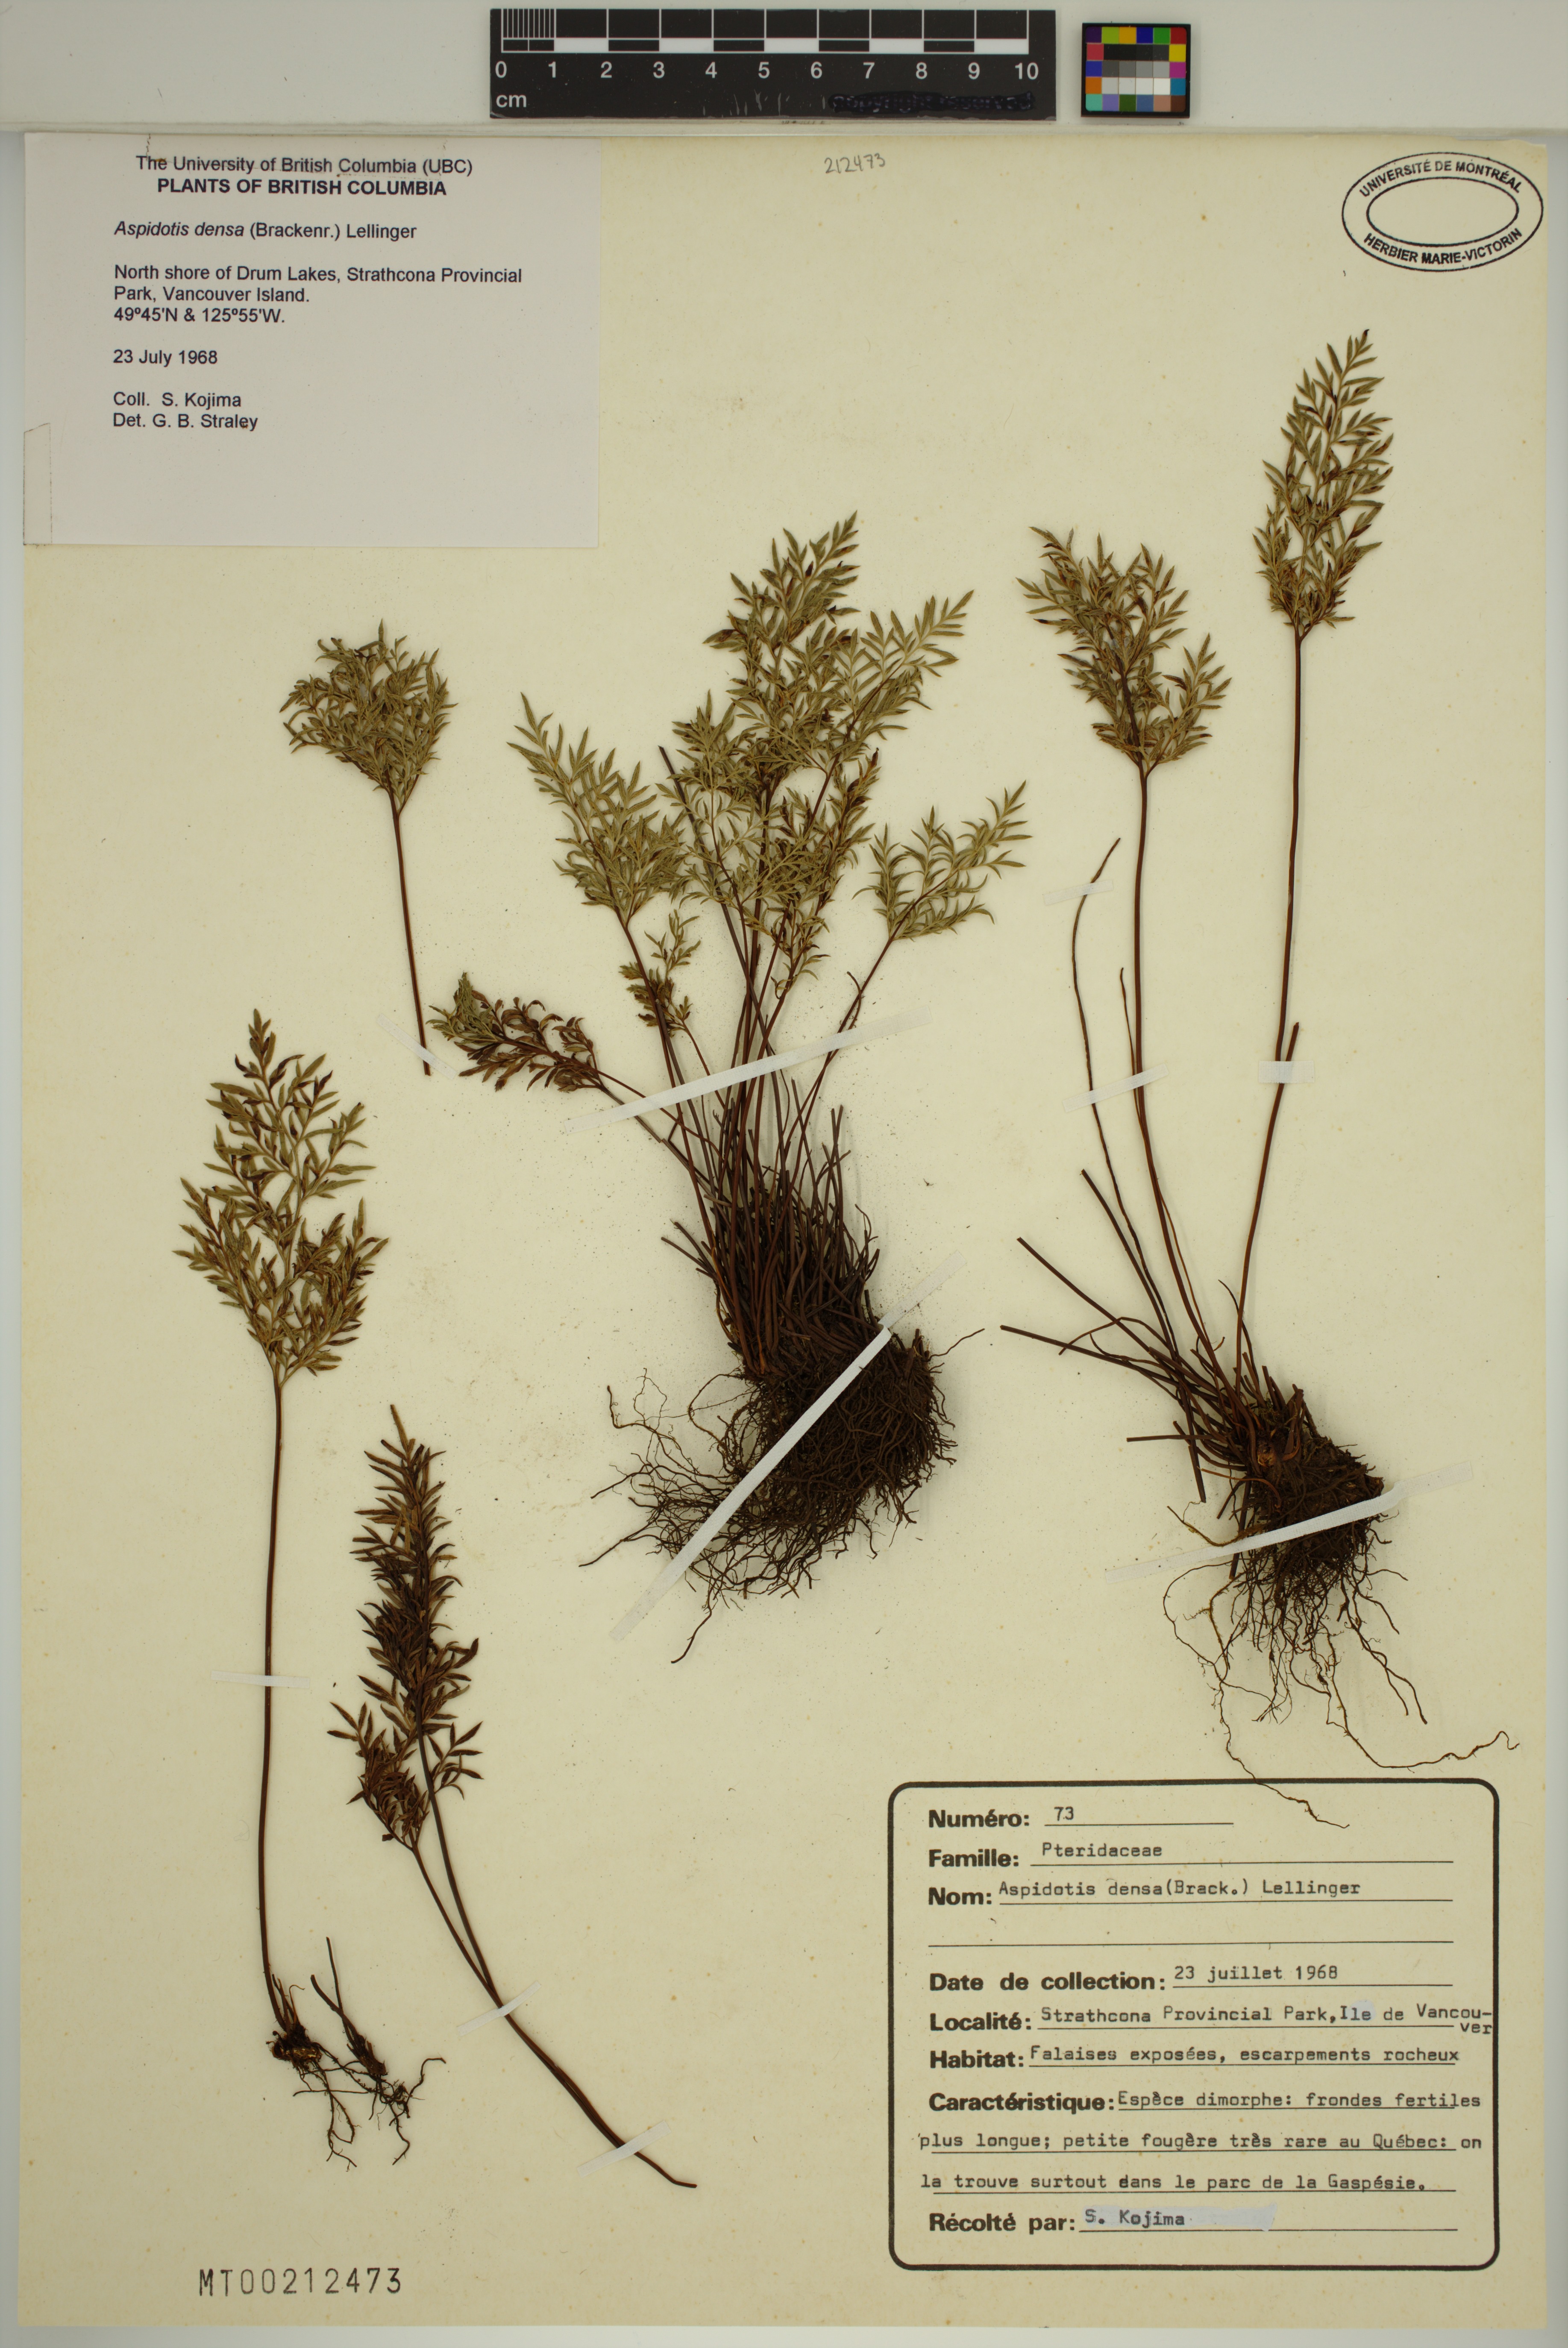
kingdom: Plantae
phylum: Tracheophyta
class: Polypodiopsida
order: Polypodiales
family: Pteridaceae
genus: Aspidotis
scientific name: Aspidotis densa
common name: Indian's dream
